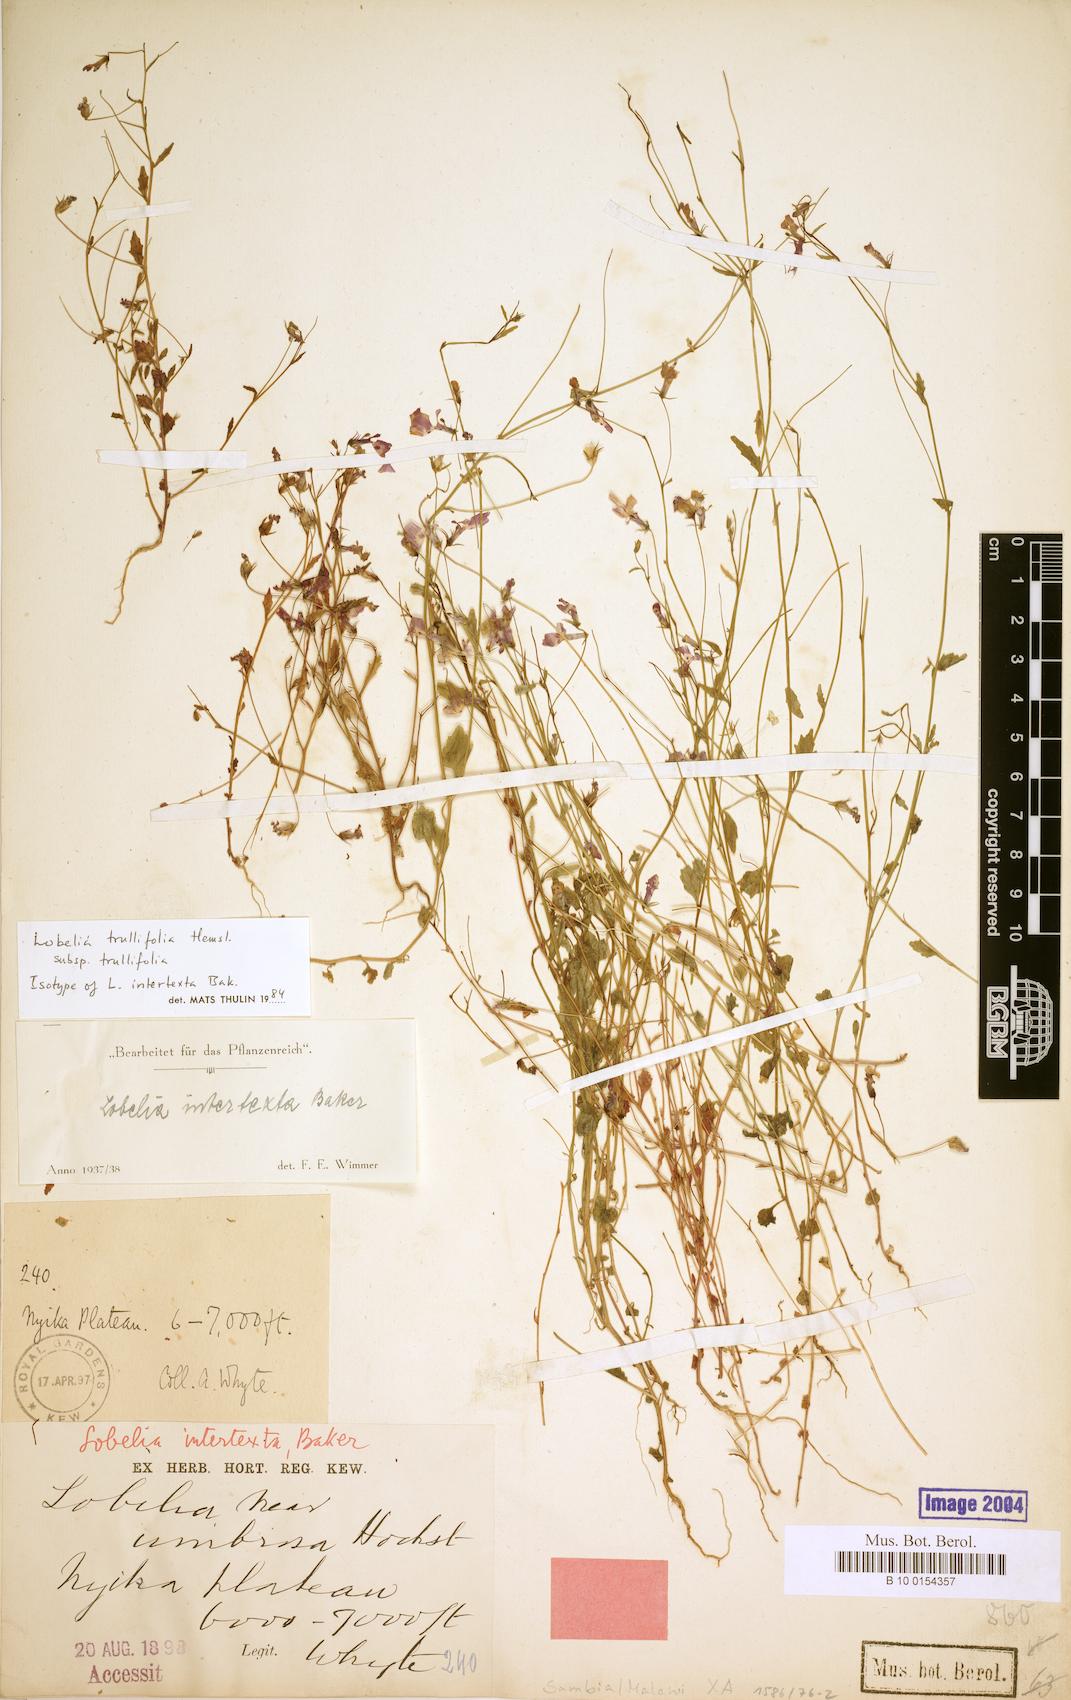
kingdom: Plantae
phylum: Tracheophyta
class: Magnoliopsida
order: Asterales
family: Campanulaceae
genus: Lobelia
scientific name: Lobelia trullifolia
